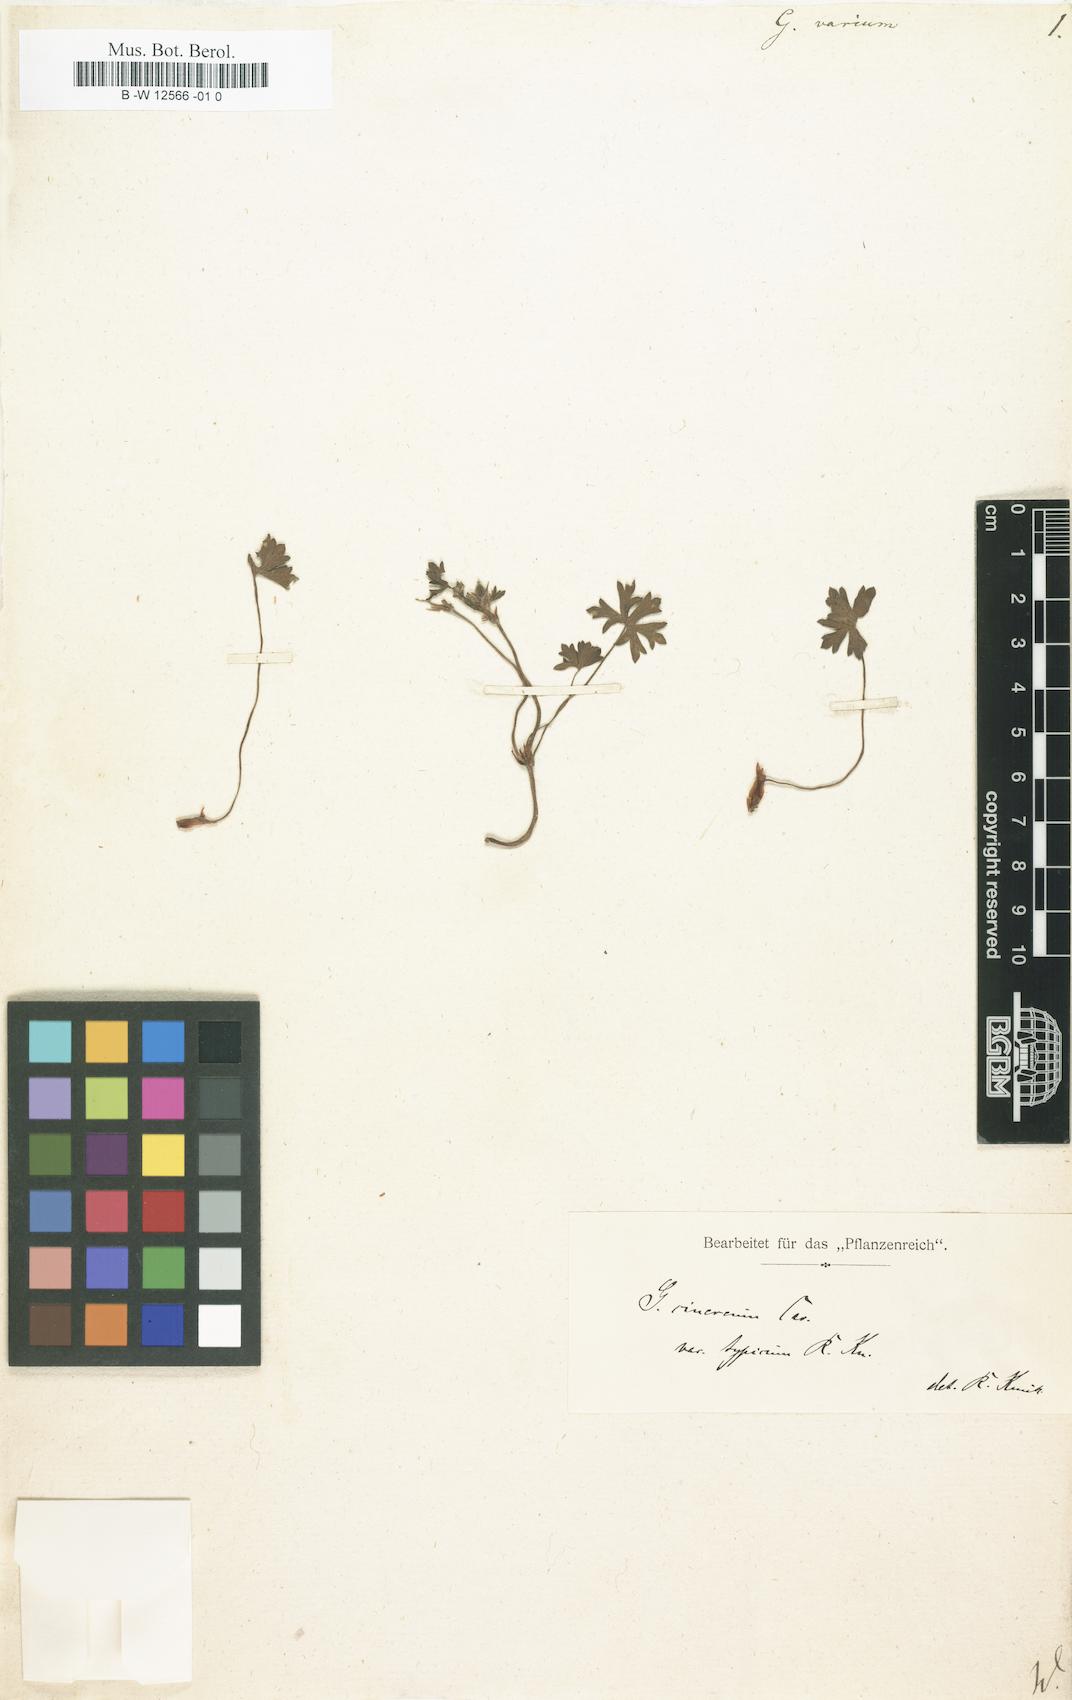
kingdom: Plantae
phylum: Tracheophyta
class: Magnoliopsida
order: Geraniales
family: Geraniaceae
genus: Geranium
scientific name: Geranium cinereum
